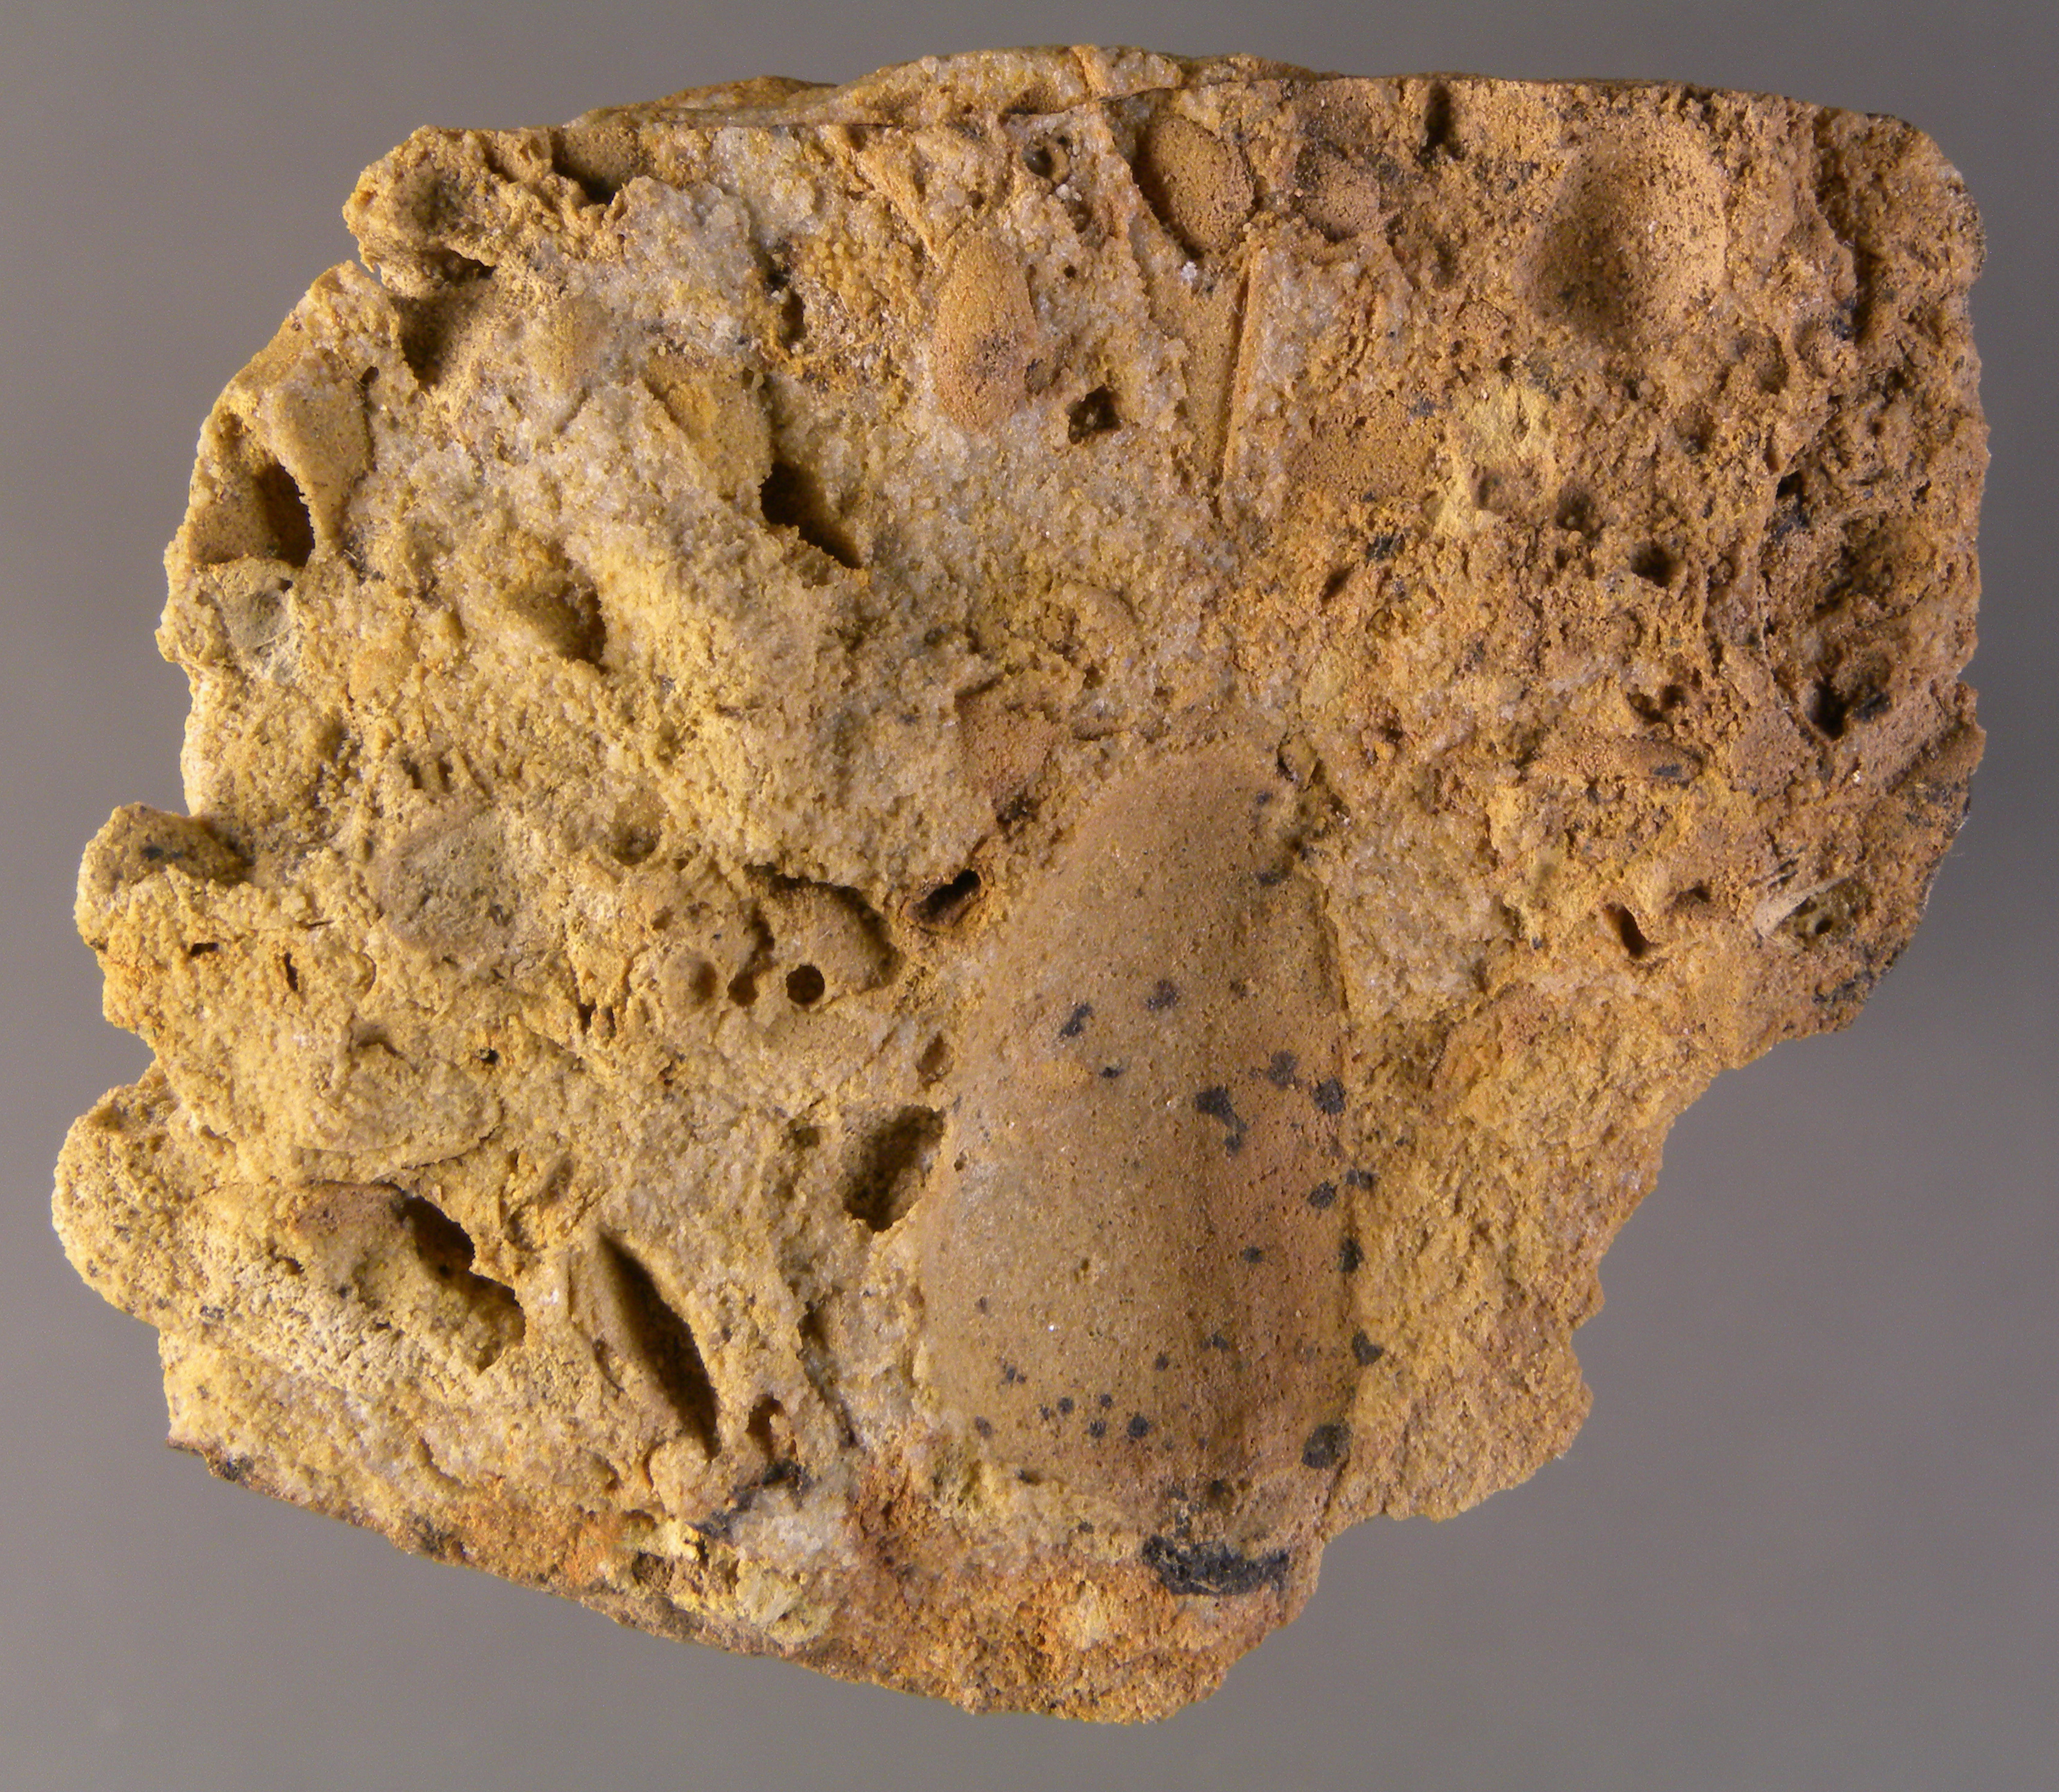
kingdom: Animalia
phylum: Mollusca
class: Bivalvia
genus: Rhenanomya
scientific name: Rhenanomya
